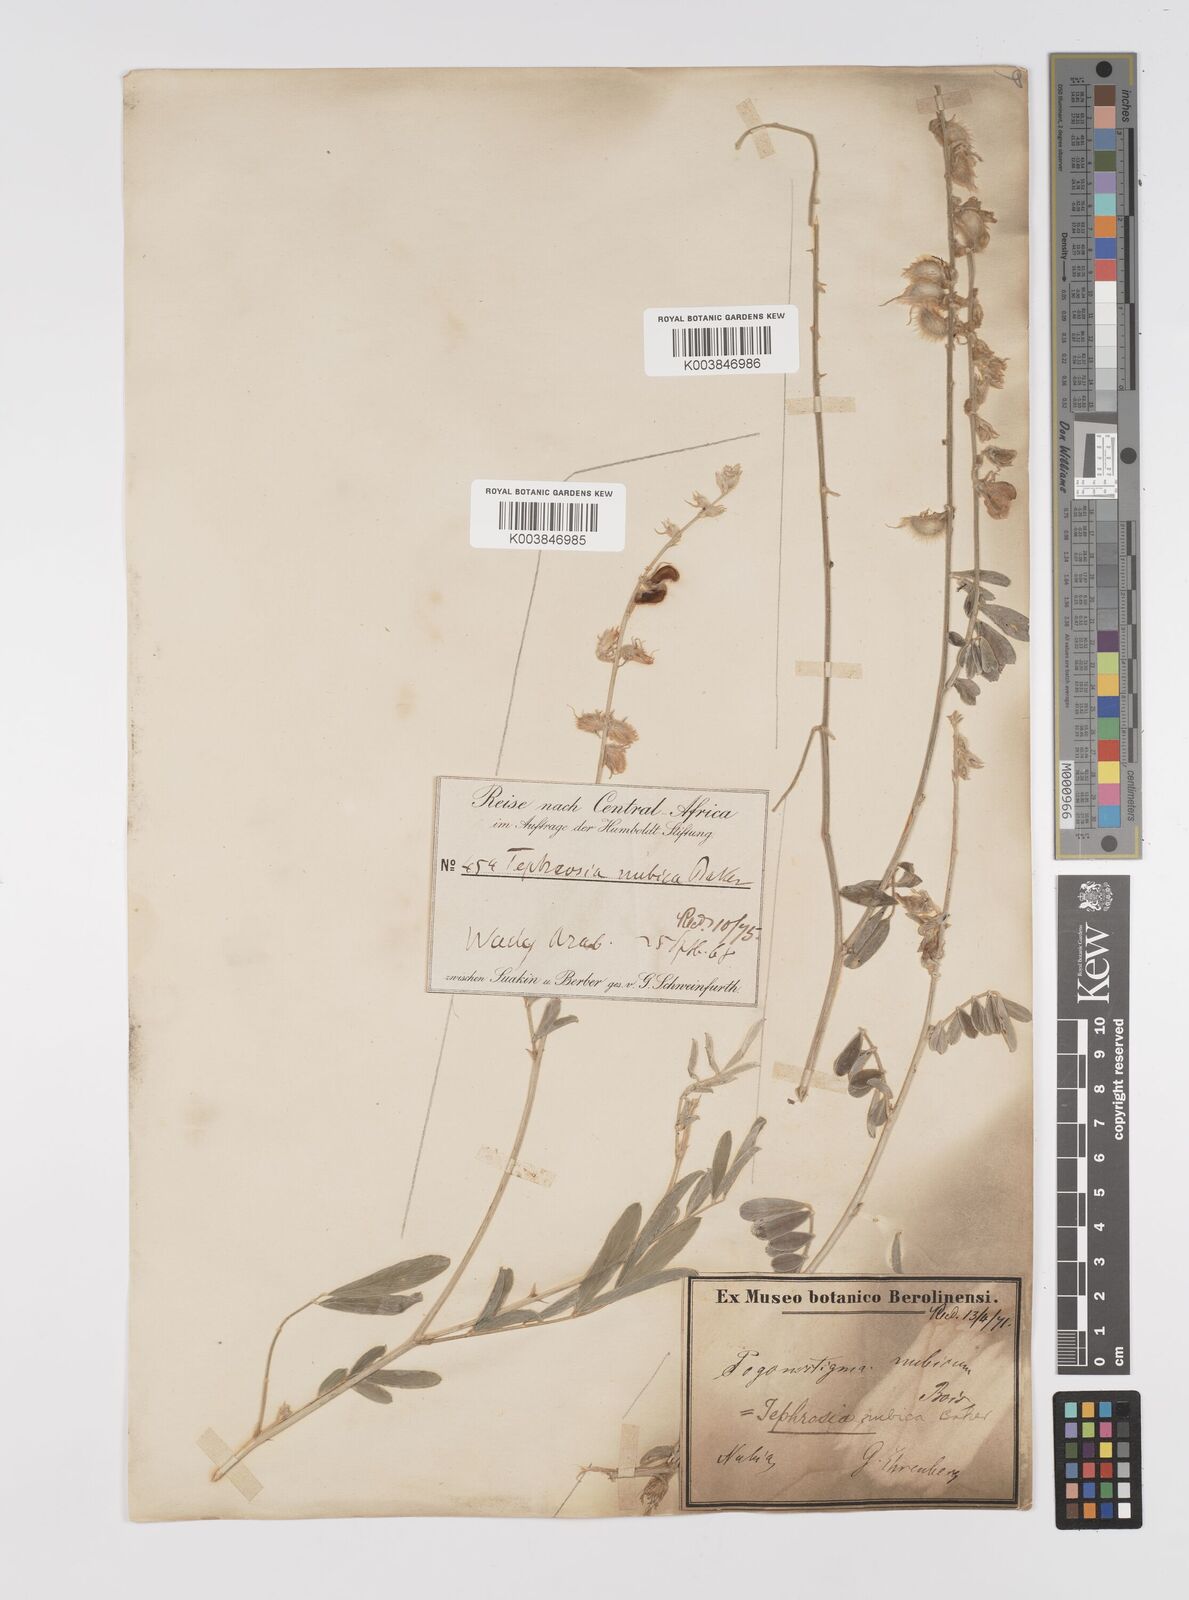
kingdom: Plantae
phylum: Tracheophyta
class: Magnoliopsida
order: Fabales
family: Fabaceae
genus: Tephrosia
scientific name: Tephrosia nubica
